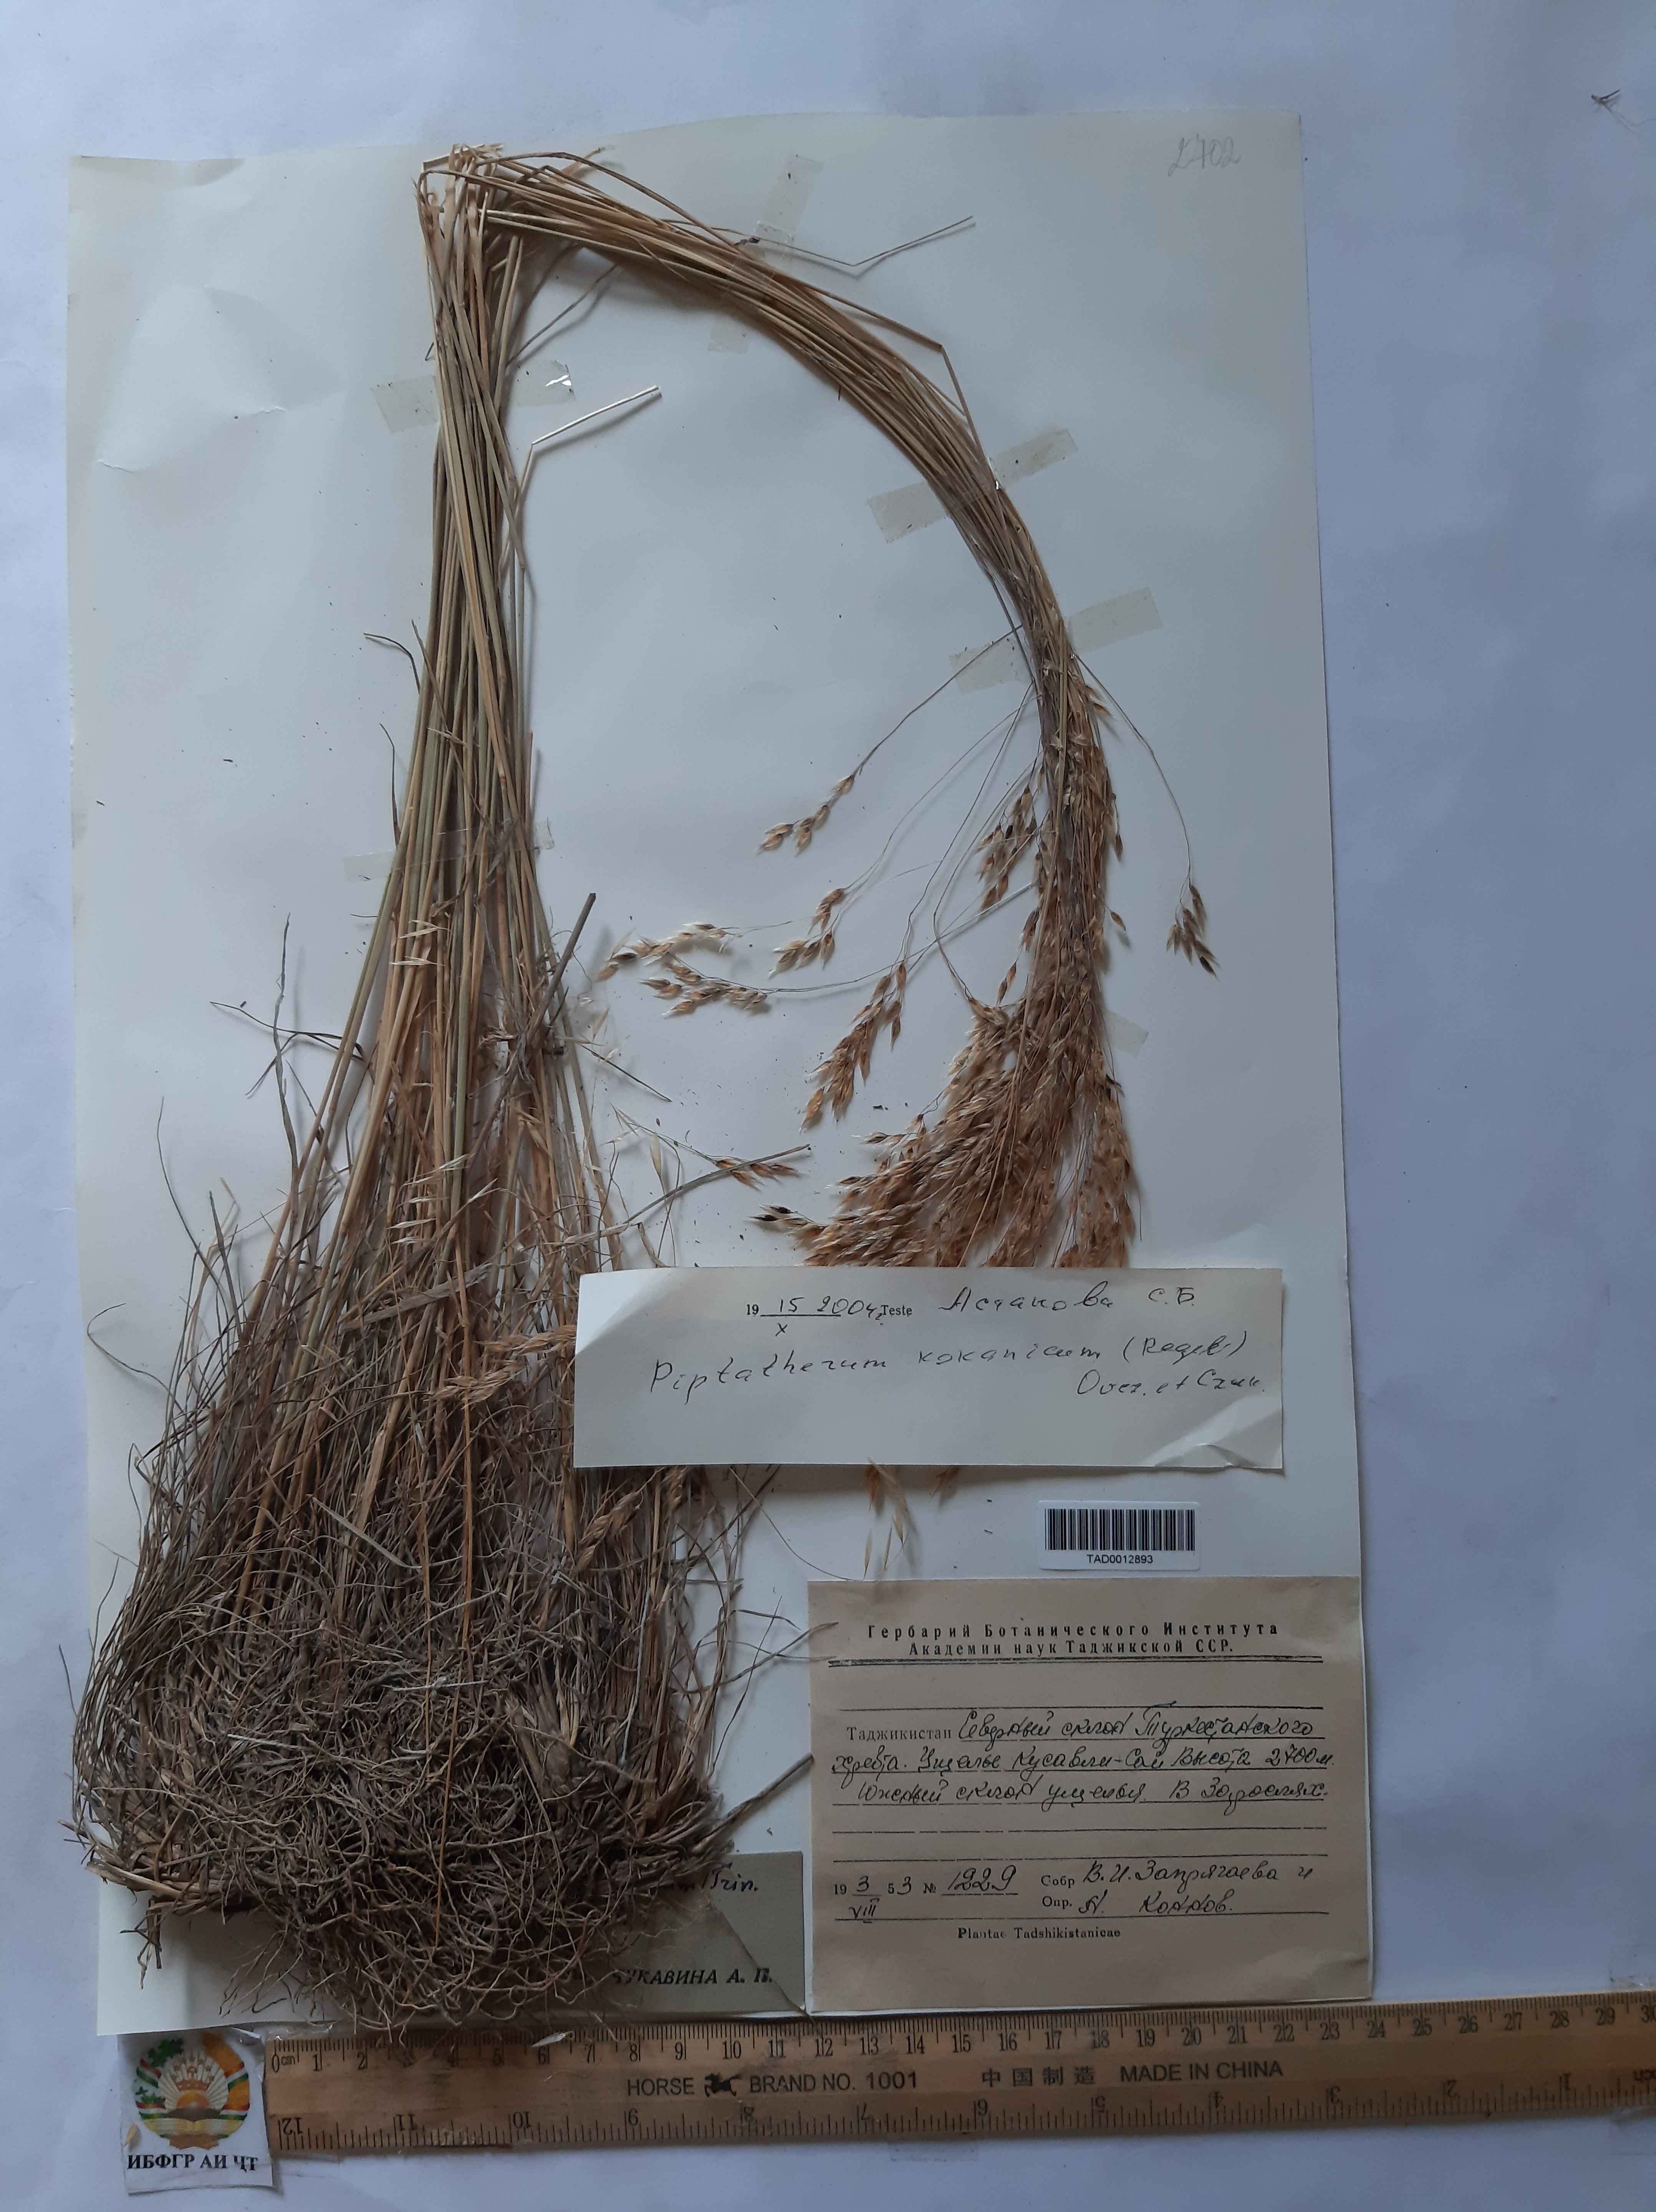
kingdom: Plantae
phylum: Tracheophyta
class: Liliopsida
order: Poales
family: Poaceae
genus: Piptatherum
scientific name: Piptatherum songaricum
